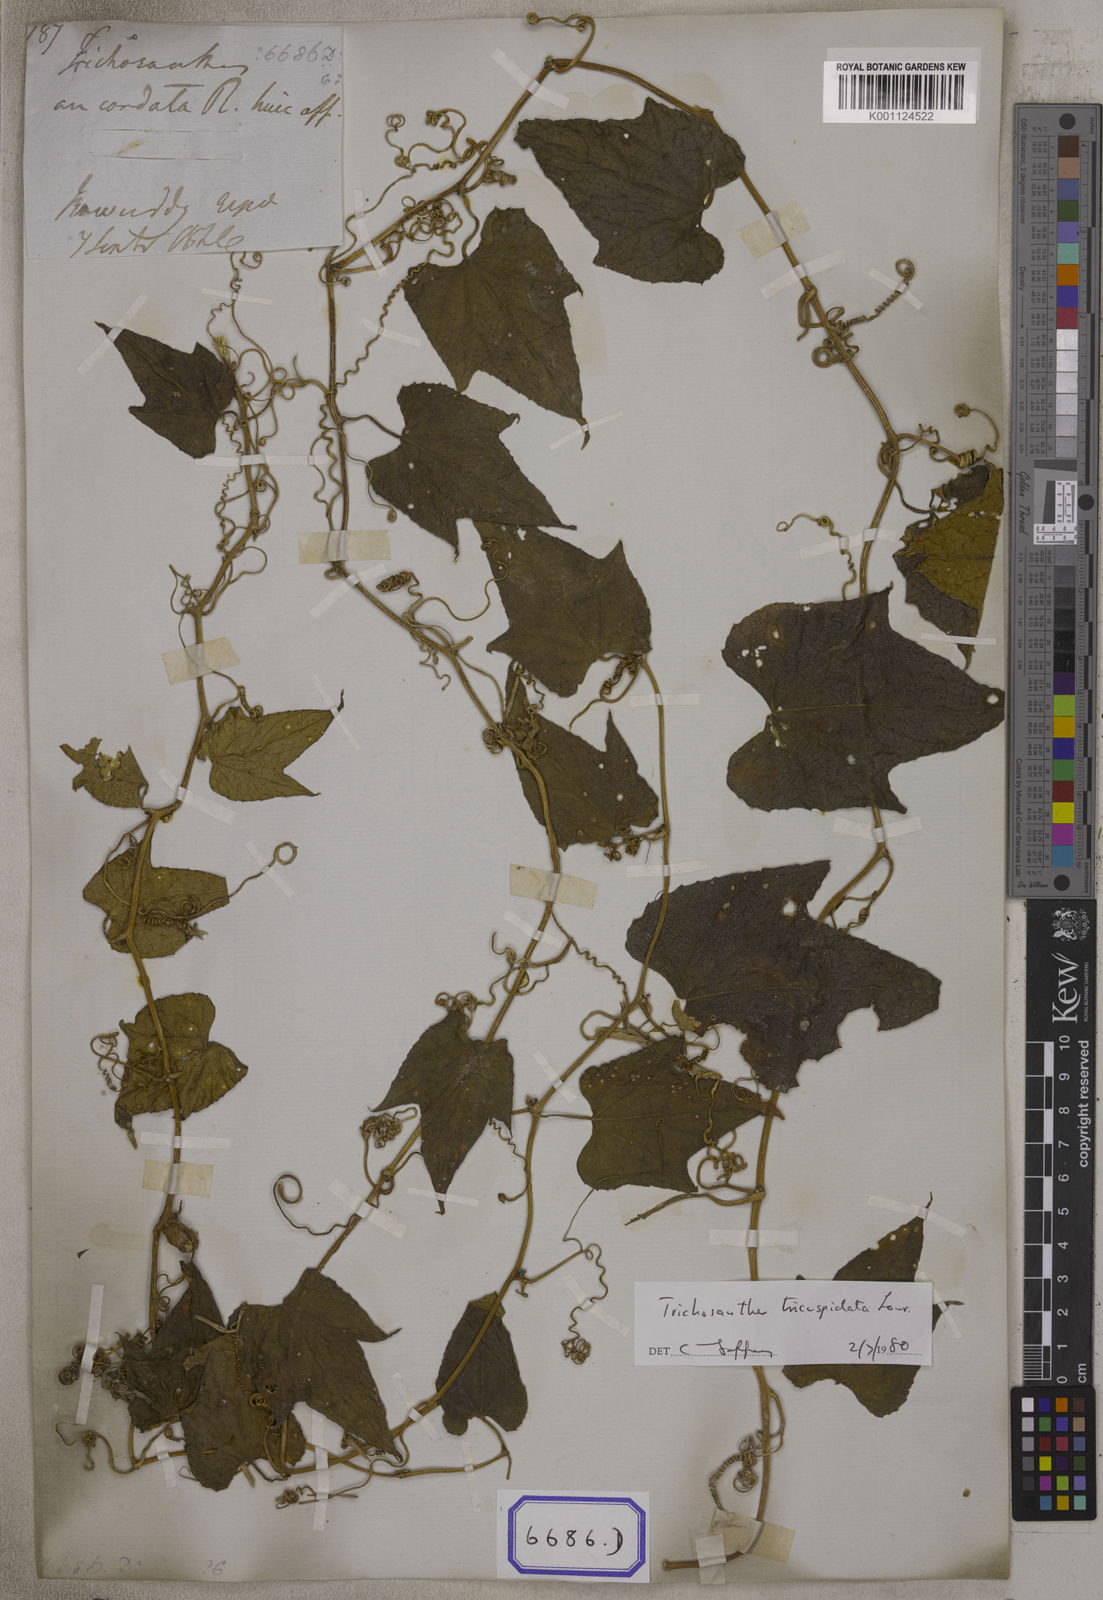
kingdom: Plantae
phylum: Tracheophyta
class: Magnoliopsida
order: Cucurbitales
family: Cucurbitaceae
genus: Trichosanthes
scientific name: Trichosanthes
